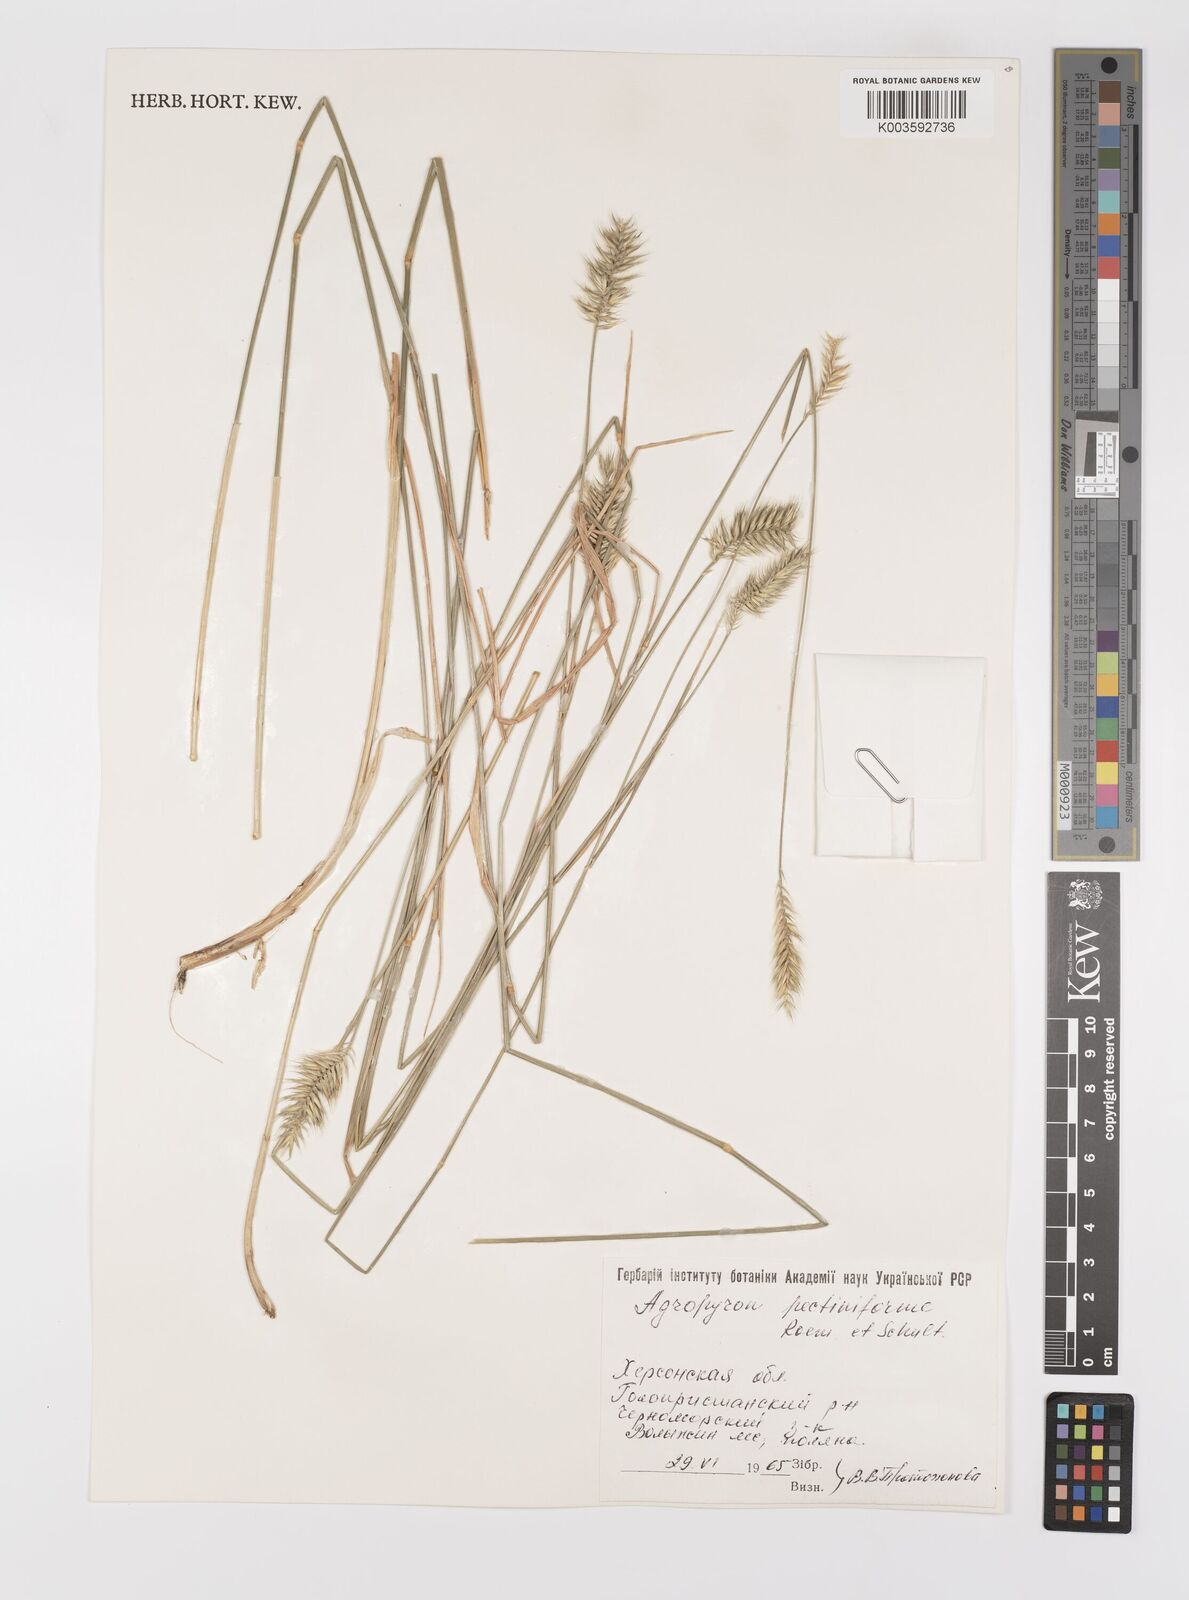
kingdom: Plantae
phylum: Tracheophyta
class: Liliopsida
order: Poales
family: Poaceae
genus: Agropyron
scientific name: Agropyron cristatum
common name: Crested wheatgrass
